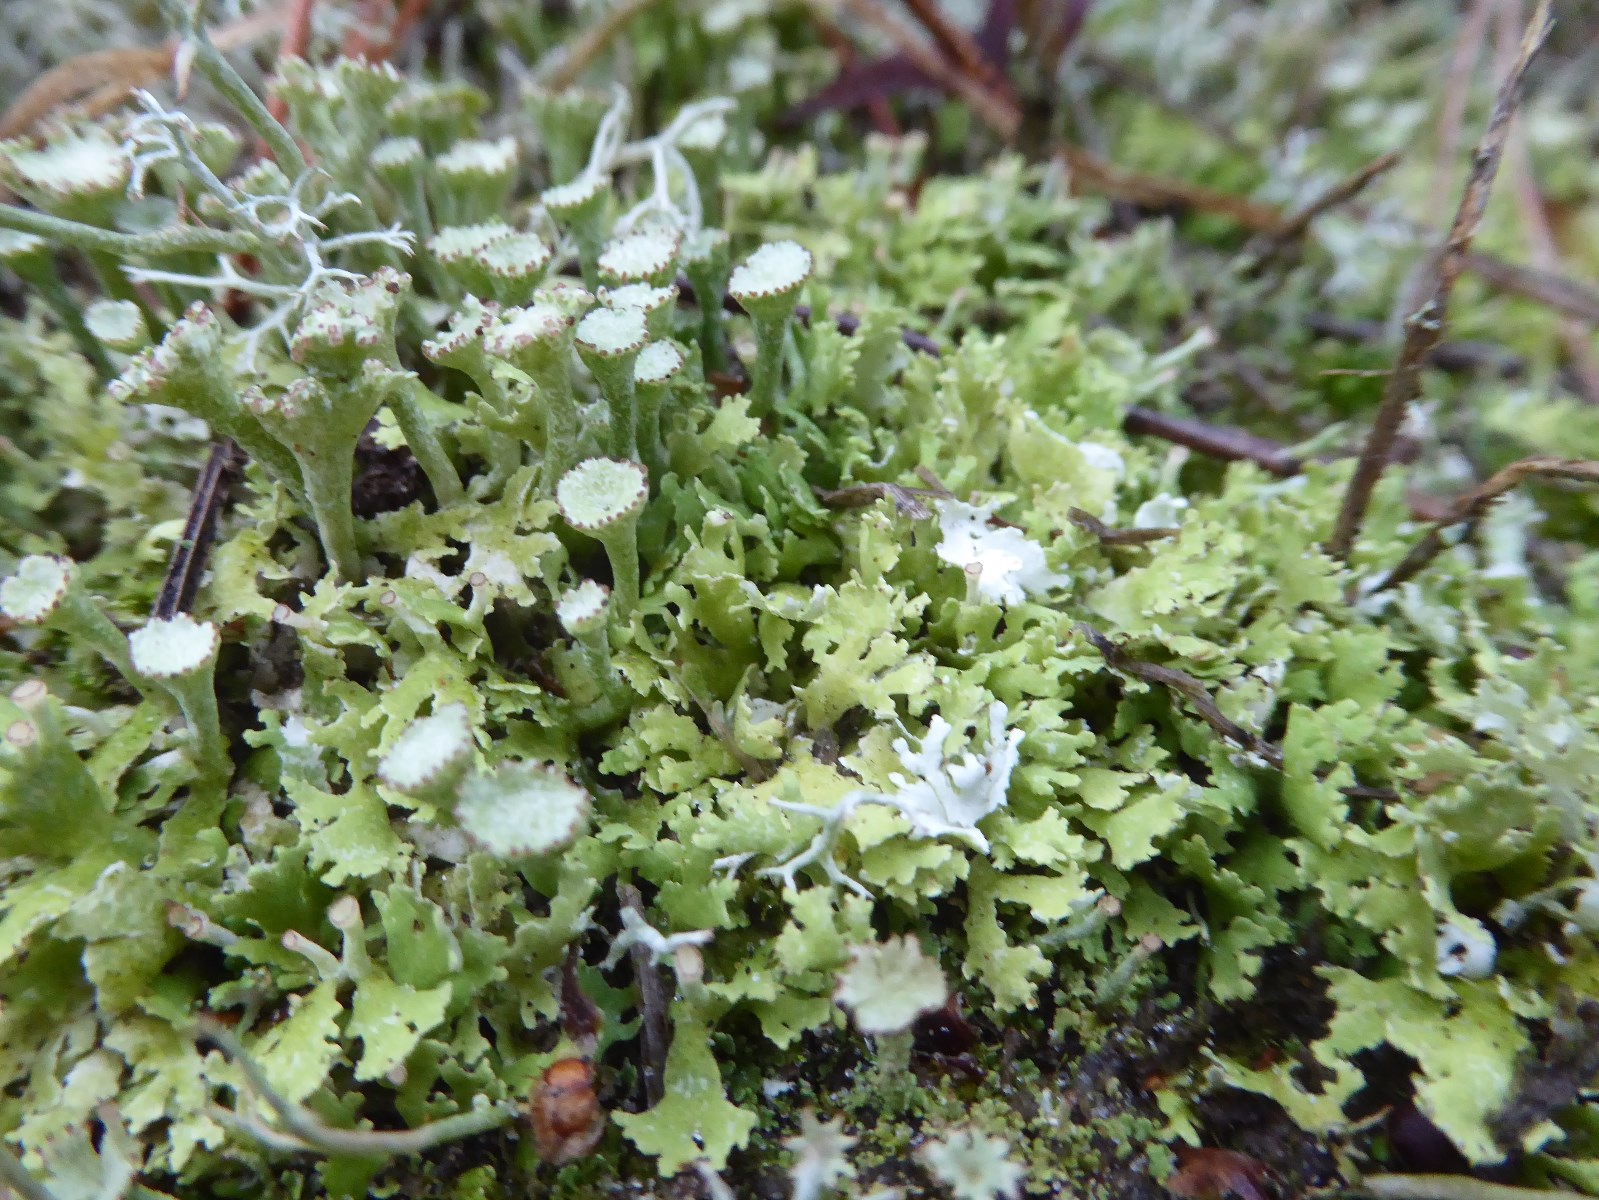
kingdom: Fungi
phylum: Ascomycota
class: Lecanoromycetes
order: Lecanorales
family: Cladoniaceae
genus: Cladonia
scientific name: Cladonia foliacea
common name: fliget bægerlav
